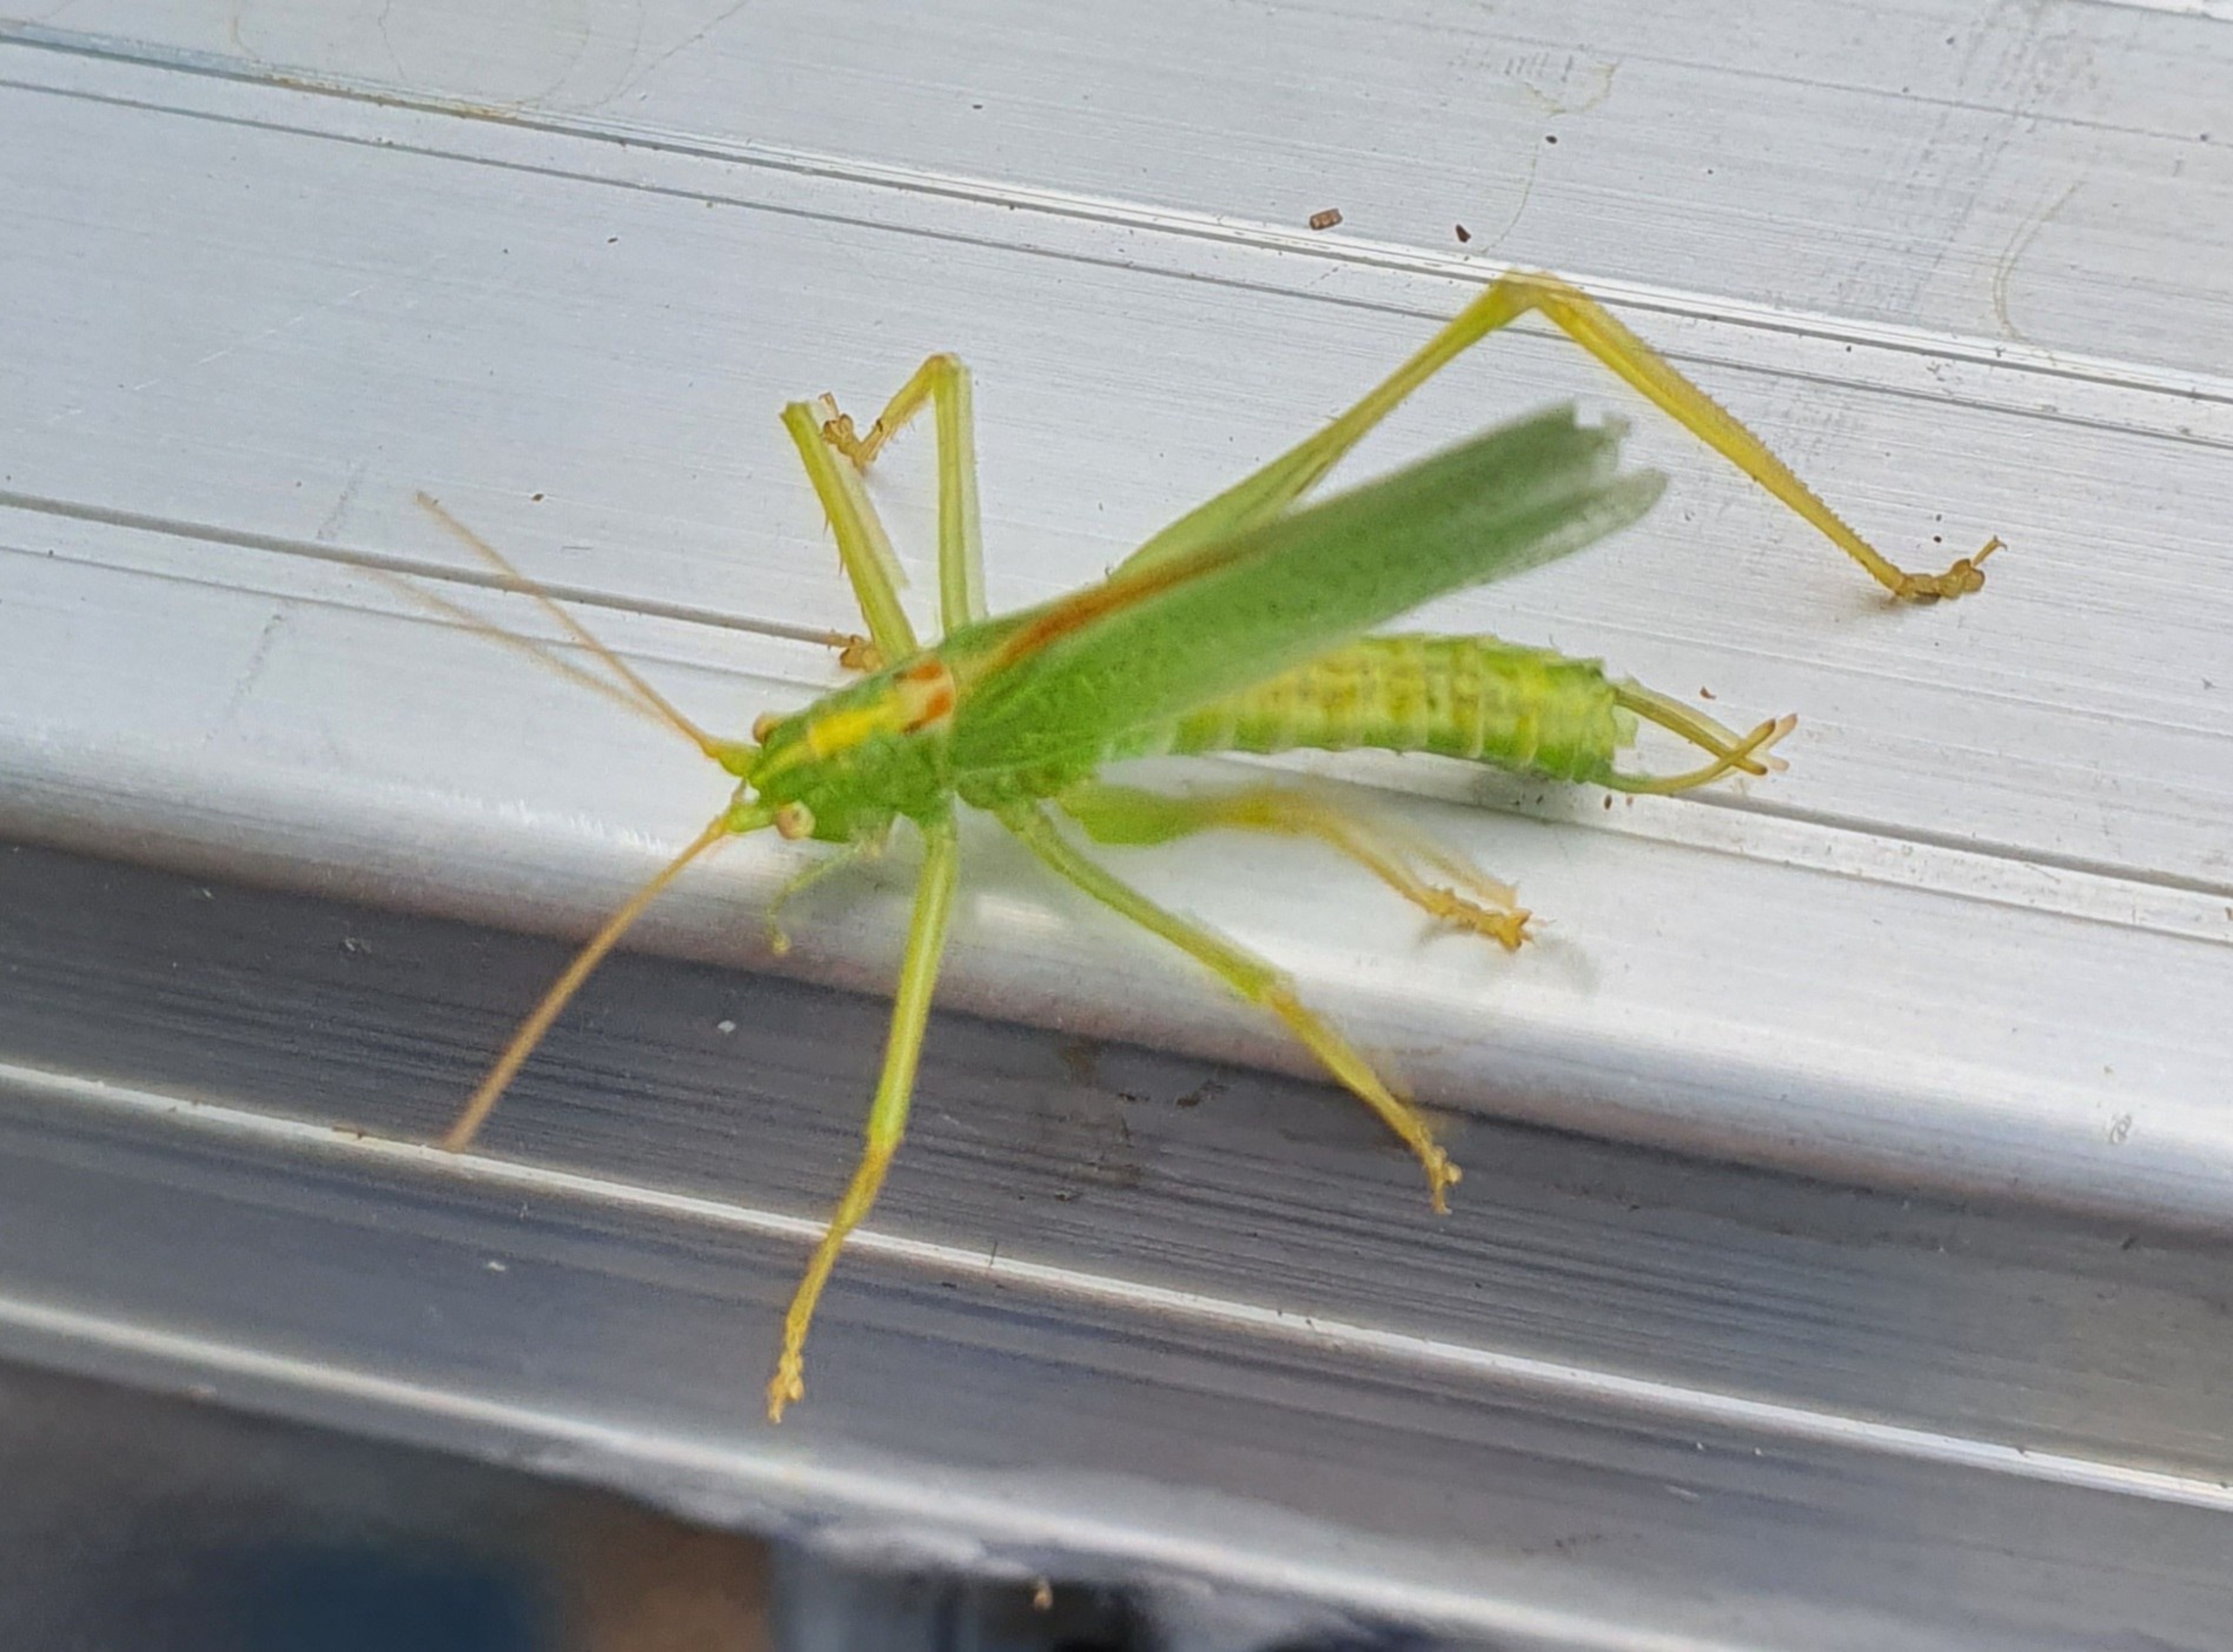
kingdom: Animalia
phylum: Arthropoda
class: Insecta
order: Orthoptera
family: Tettigoniidae
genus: Meconema
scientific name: Meconema thalassinum
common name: Egegræshoppe
